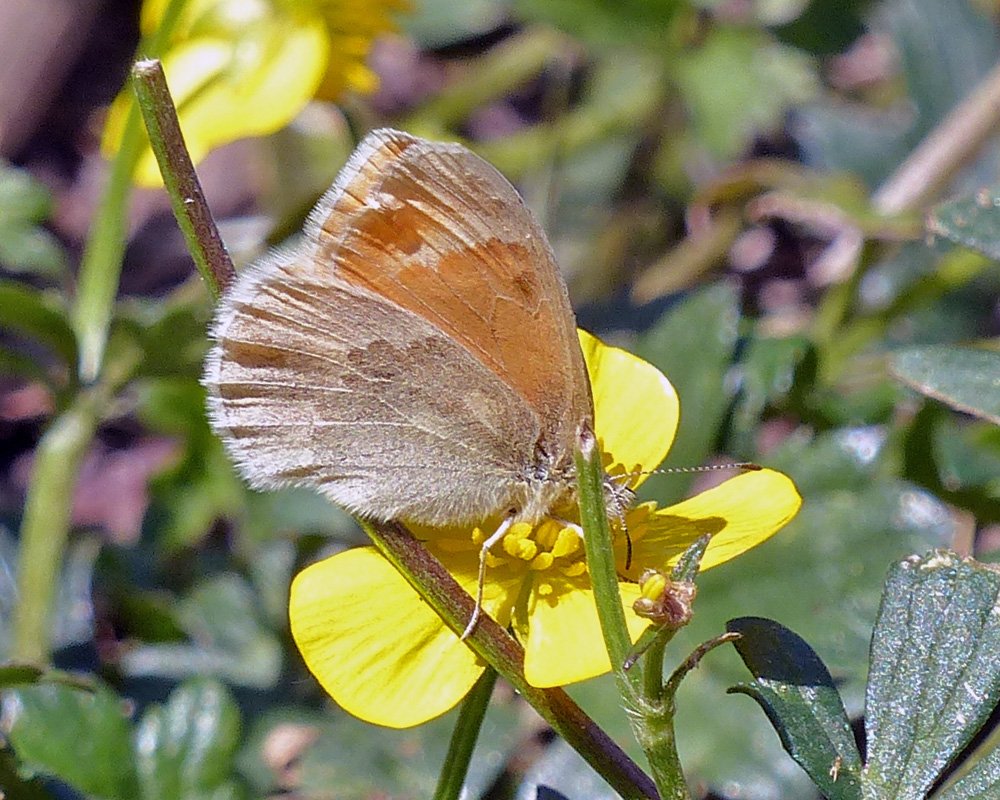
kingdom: Animalia
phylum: Arthropoda
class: Insecta
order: Lepidoptera
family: Nymphalidae
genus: Coenonympha
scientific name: Coenonympha tullia
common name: Large Heath
